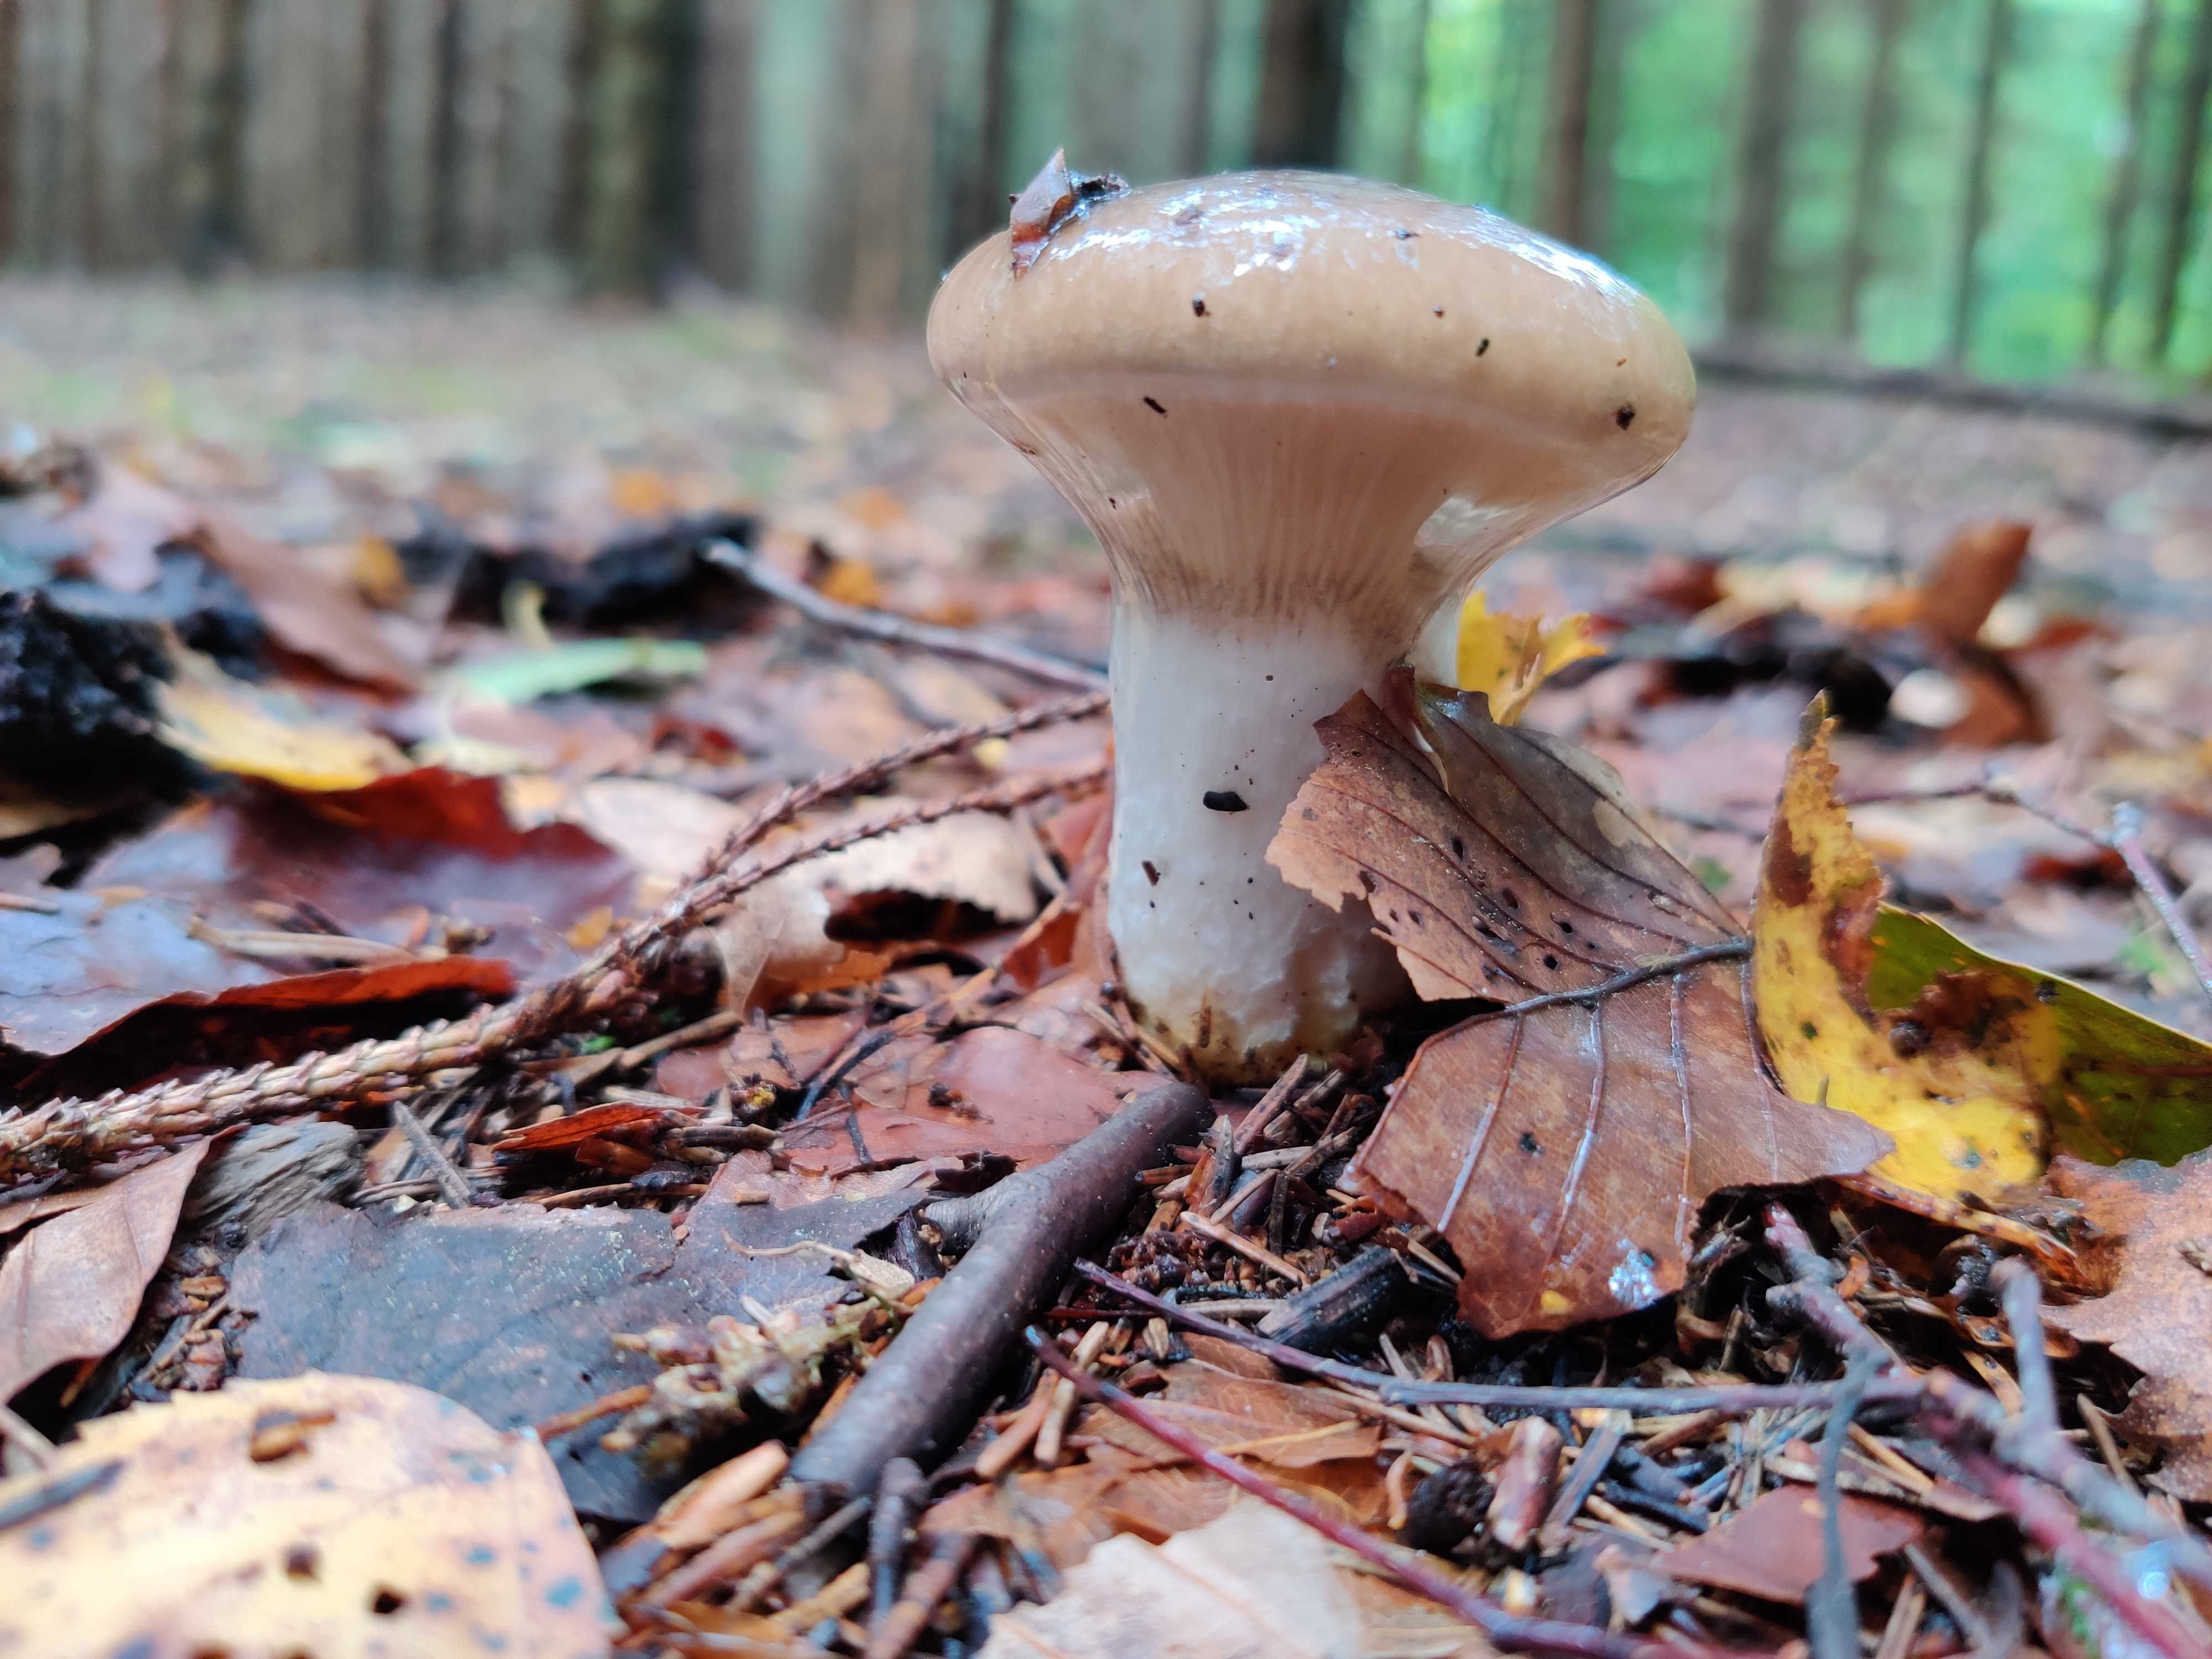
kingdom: Fungi
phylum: Basidiomycota
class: Agaricomycetes
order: Boletales
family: Gomphidiaceae
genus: Gomphidius
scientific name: Gomphidius glutinosus
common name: grå slimslør
